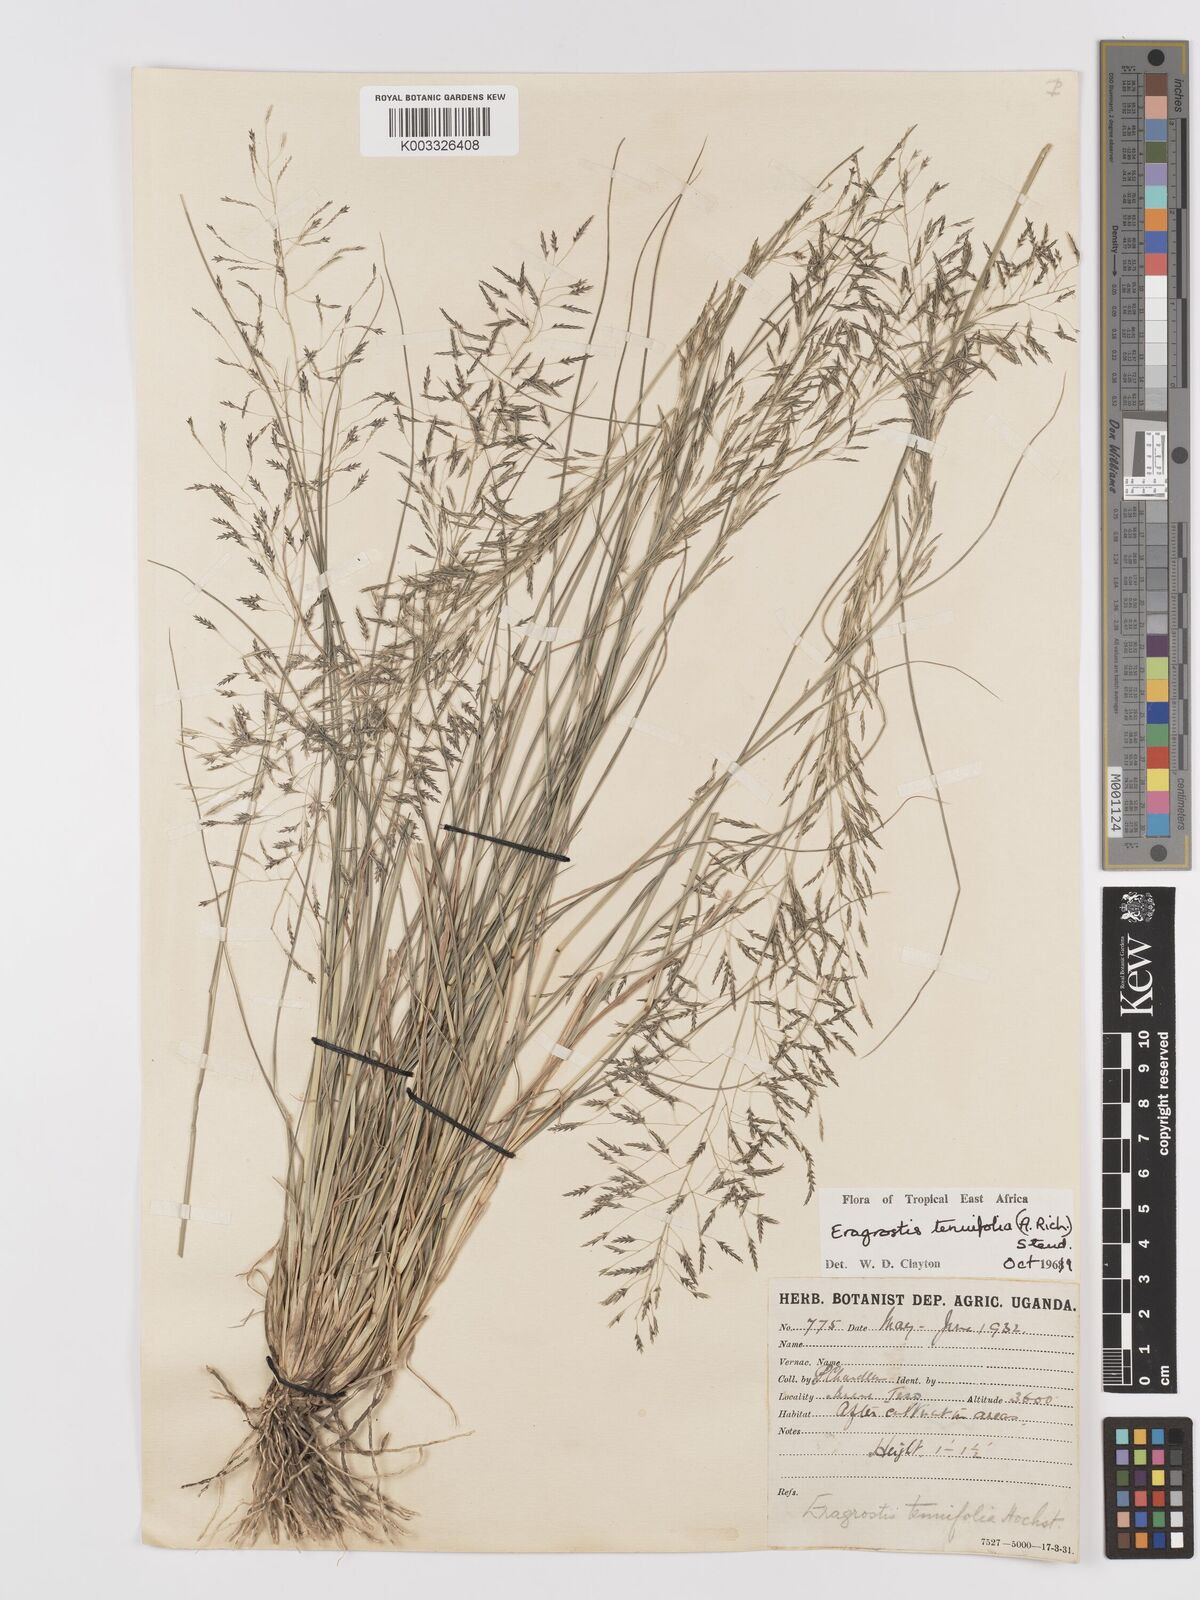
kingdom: Plantae
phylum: Tracheophyta
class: Liliopsida
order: Poales
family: Poaceae
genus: Eragrostis
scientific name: Eragrostis tenuifolia
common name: Elastic grass
